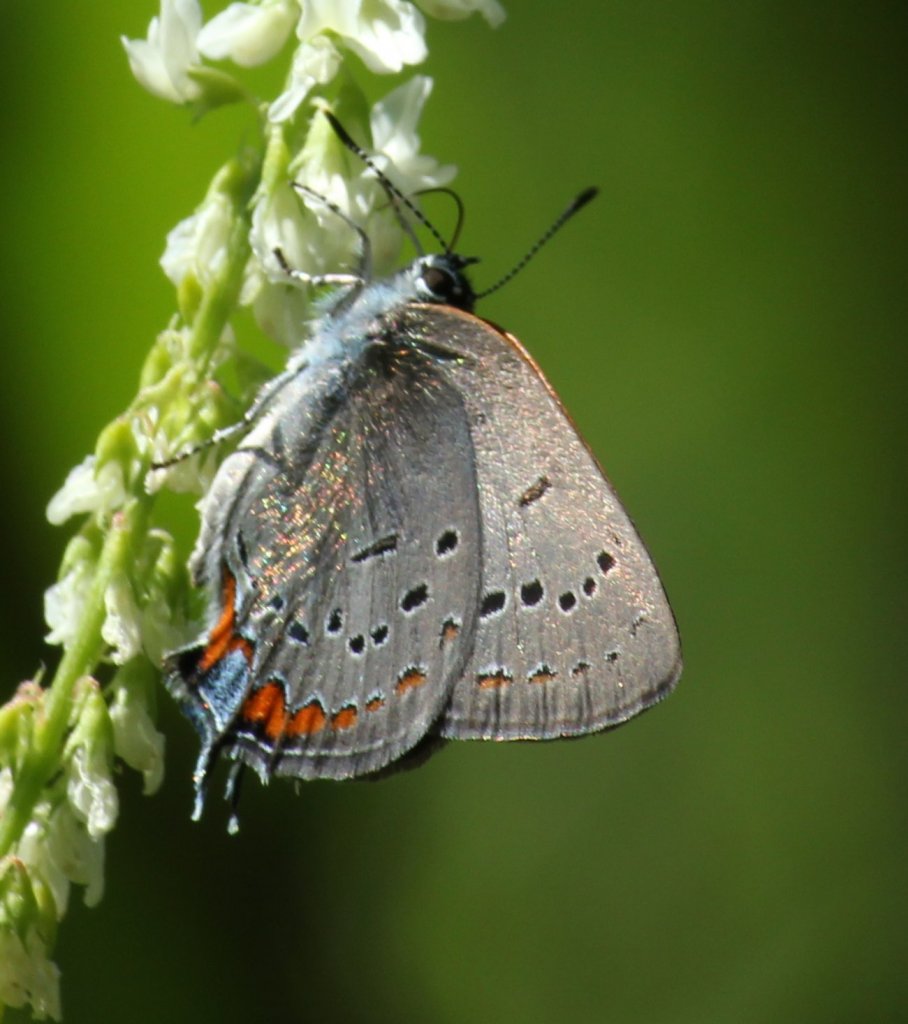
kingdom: Animalia
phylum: Arthropoda
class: Insecta
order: Lepidoptera
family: Lycaenidae
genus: Strymon
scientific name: Strymon acadica
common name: Acadian Hairstreak
